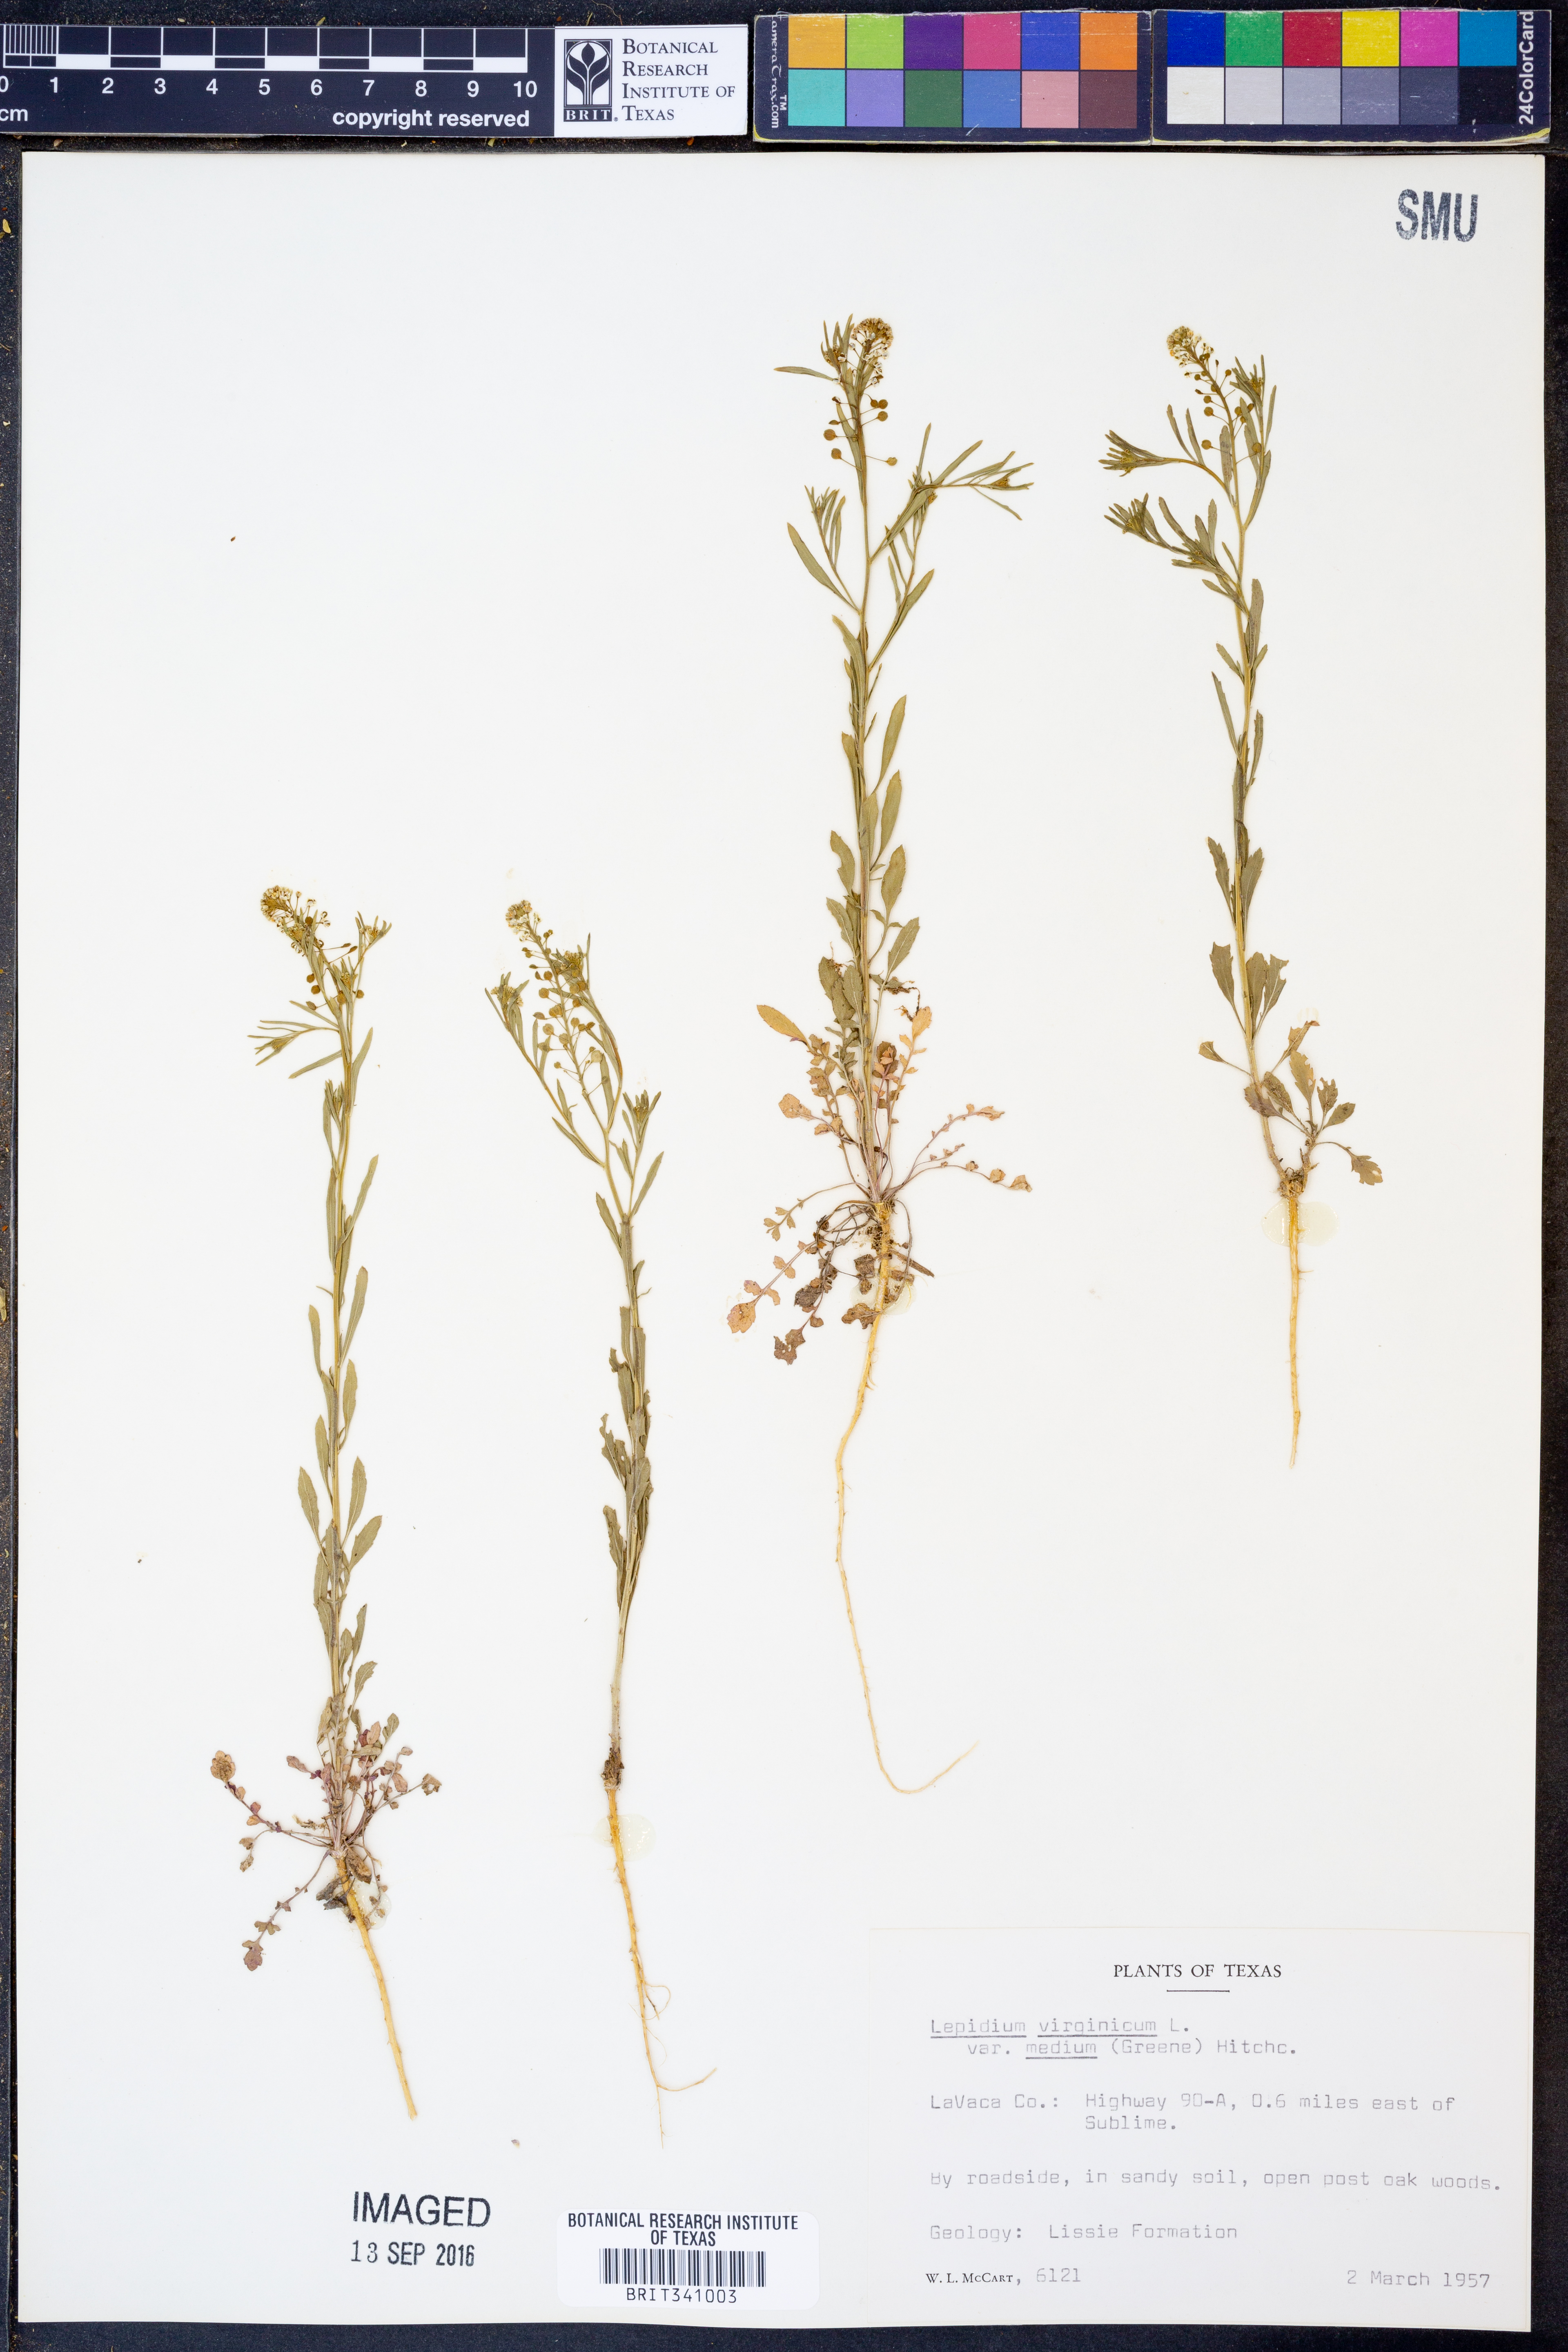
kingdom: Plantae
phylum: Tracheophyta
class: Magnoliopsida
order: Brassicales
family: Brassicaceae
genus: Lepidium
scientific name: Lepidium virginicum
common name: Least pepperwort
